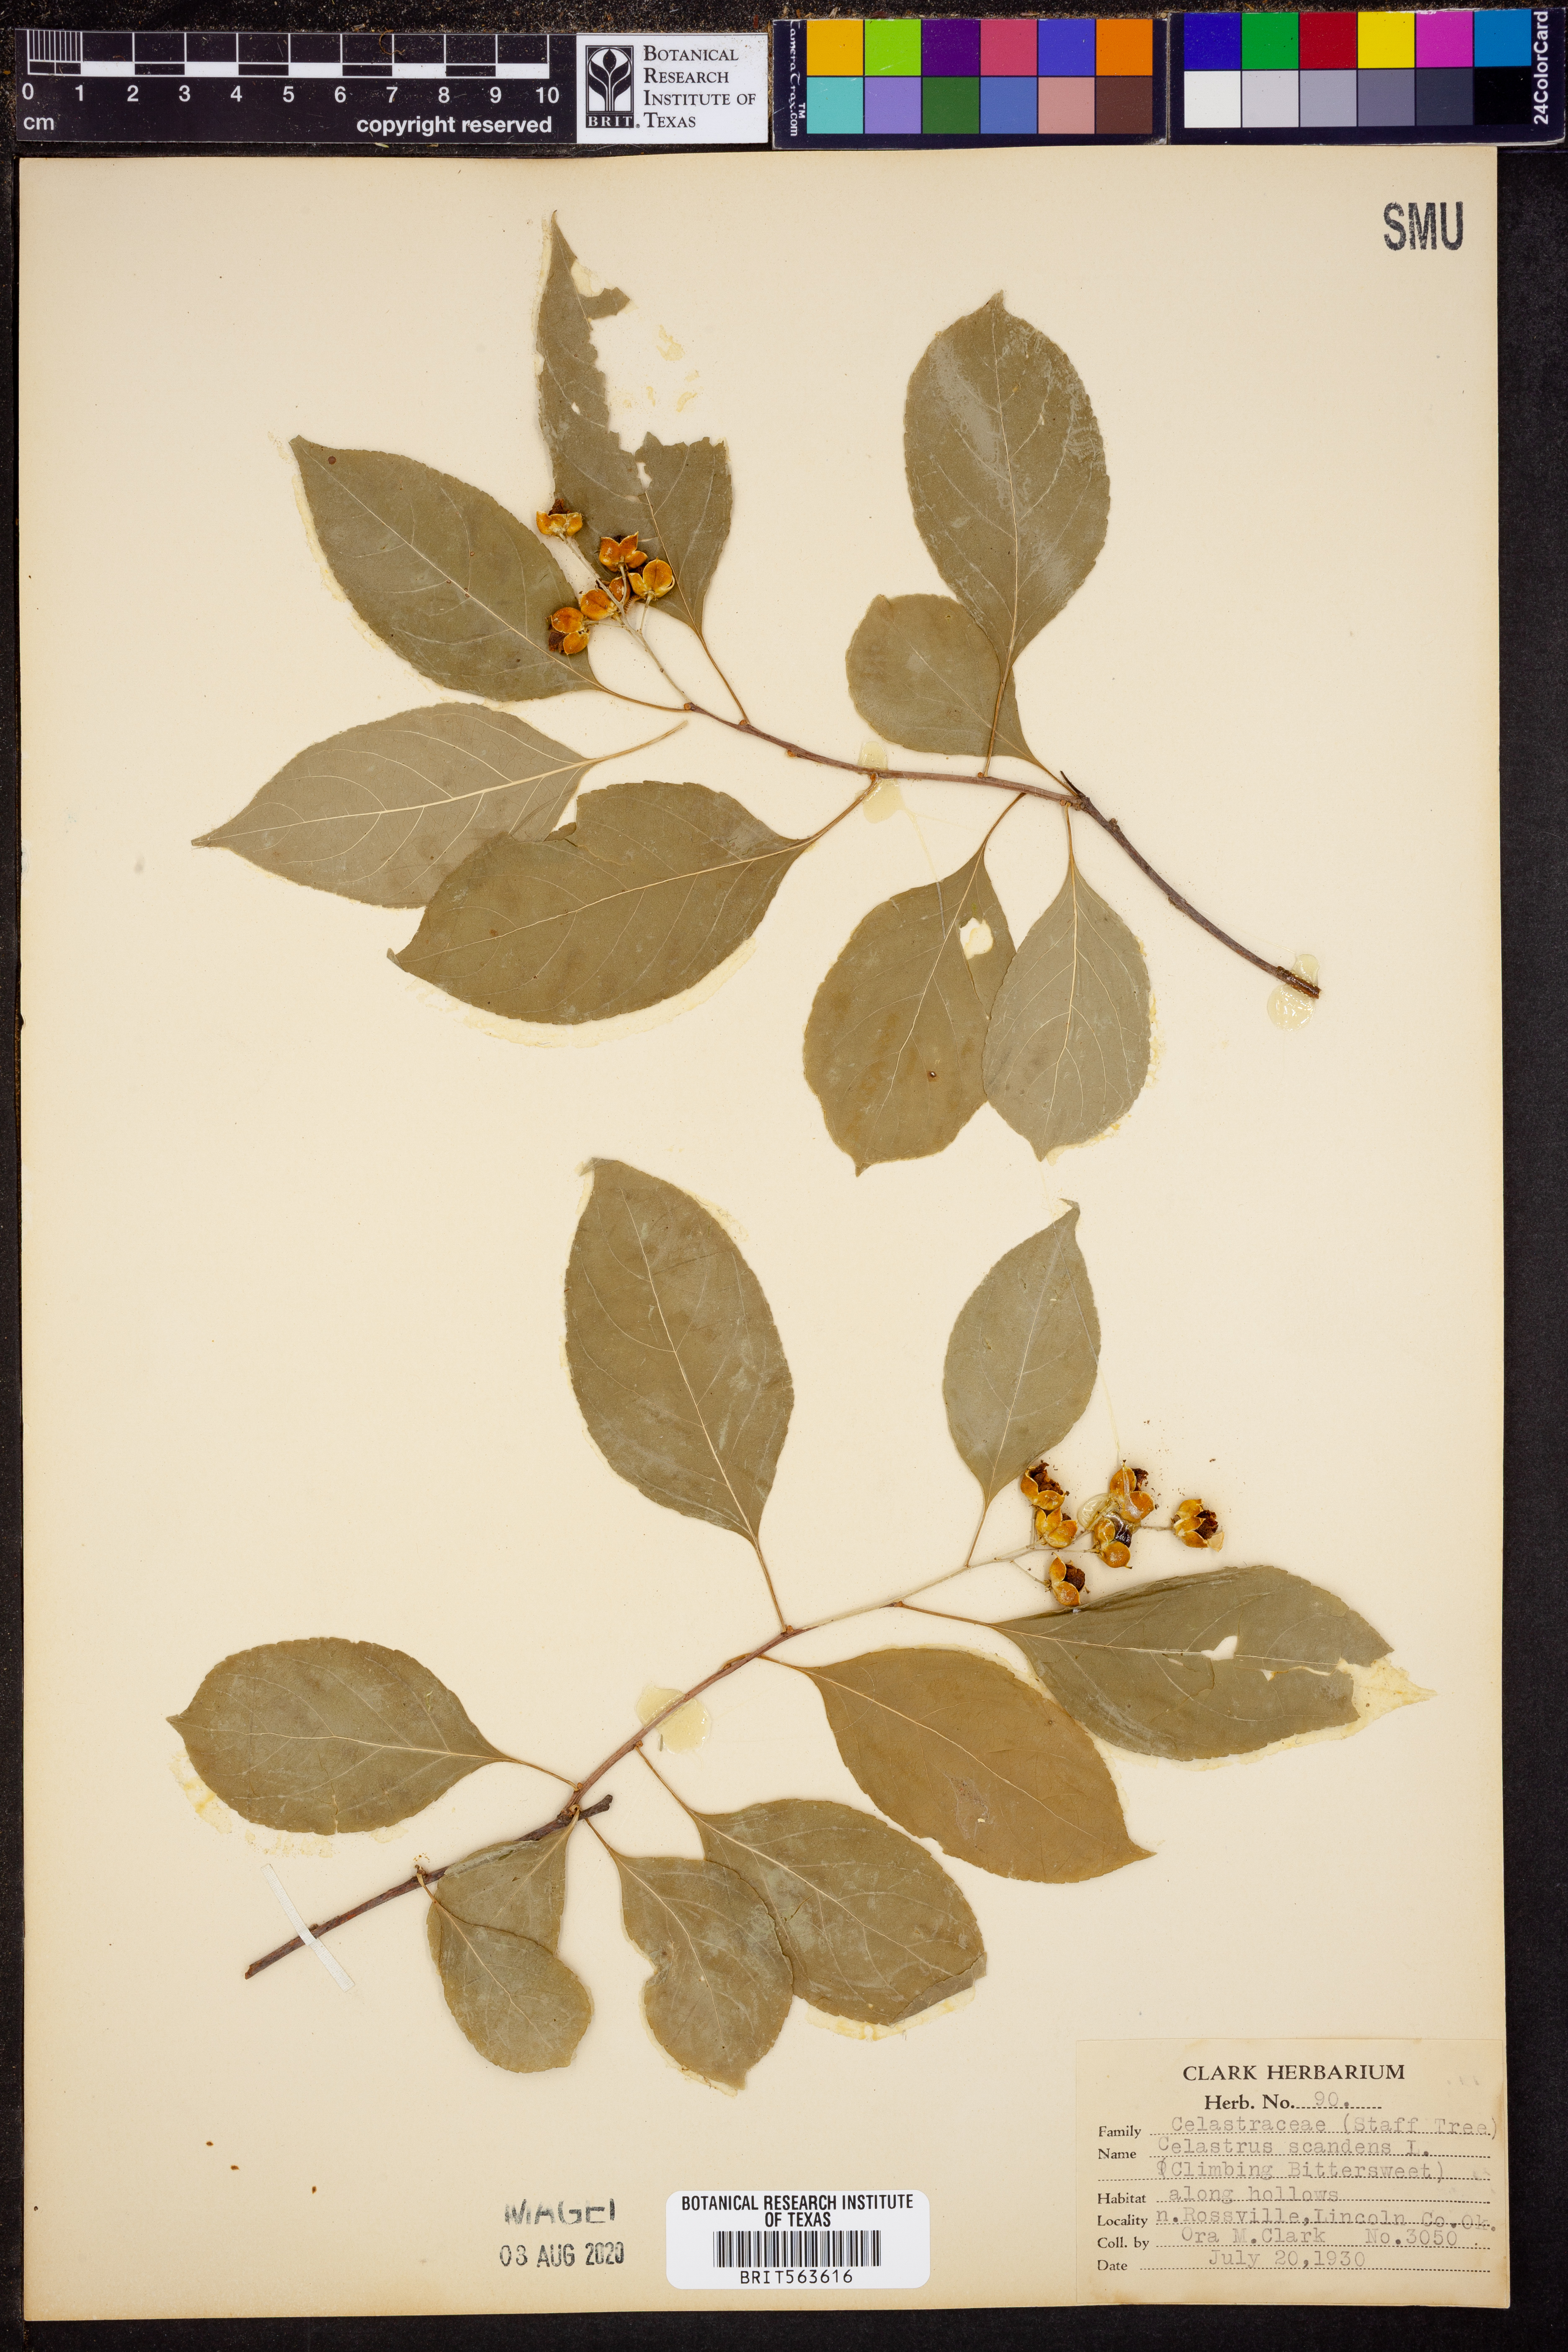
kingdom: Plantae
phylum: Tracheophyta
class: Magnoliopsida
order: Celastrales
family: Celastraceae
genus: Celastrus
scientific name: Celastrus scandens
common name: American bittersweet
